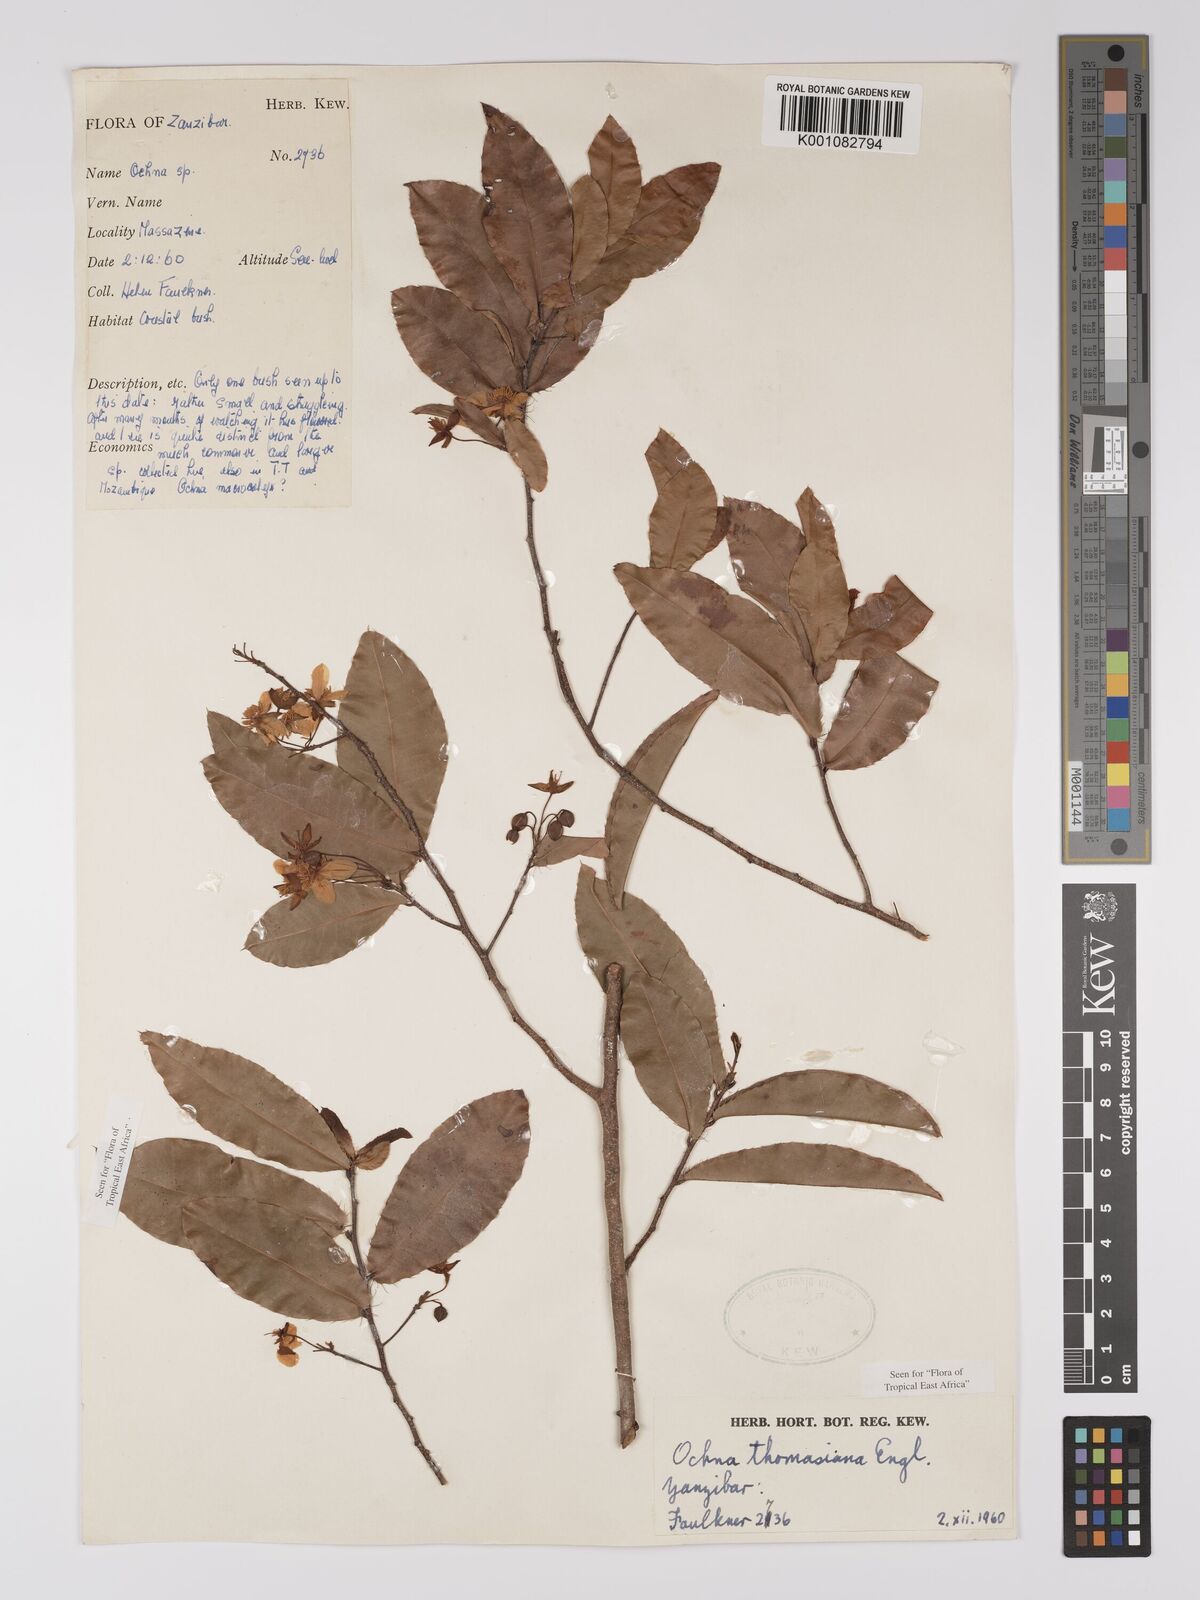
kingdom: Plantae
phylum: Tracheophyta
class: Magnoliopsida
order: Malpighiales
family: Ochnaceae
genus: Ochna
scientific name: Ochna thomasiana
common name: Thomas' bird's-eye bush
